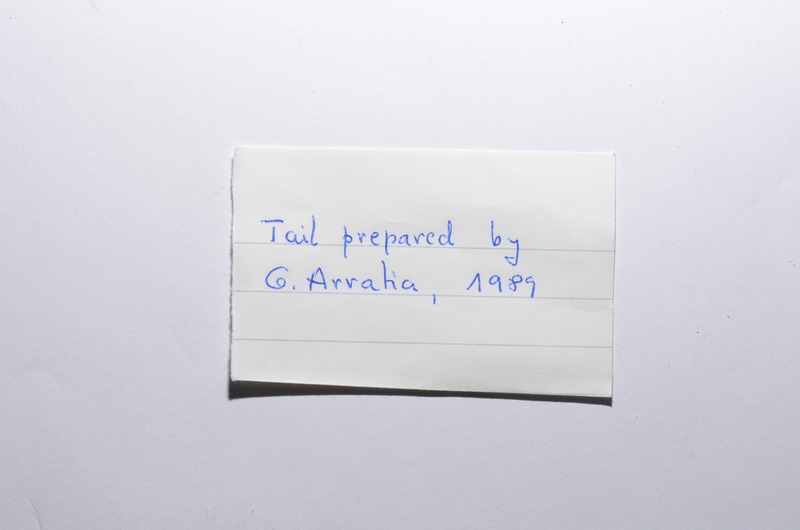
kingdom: Animalia
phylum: Chordata
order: Amiiformes
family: Amiidae
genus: Amiopsis
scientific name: Amiopsis
